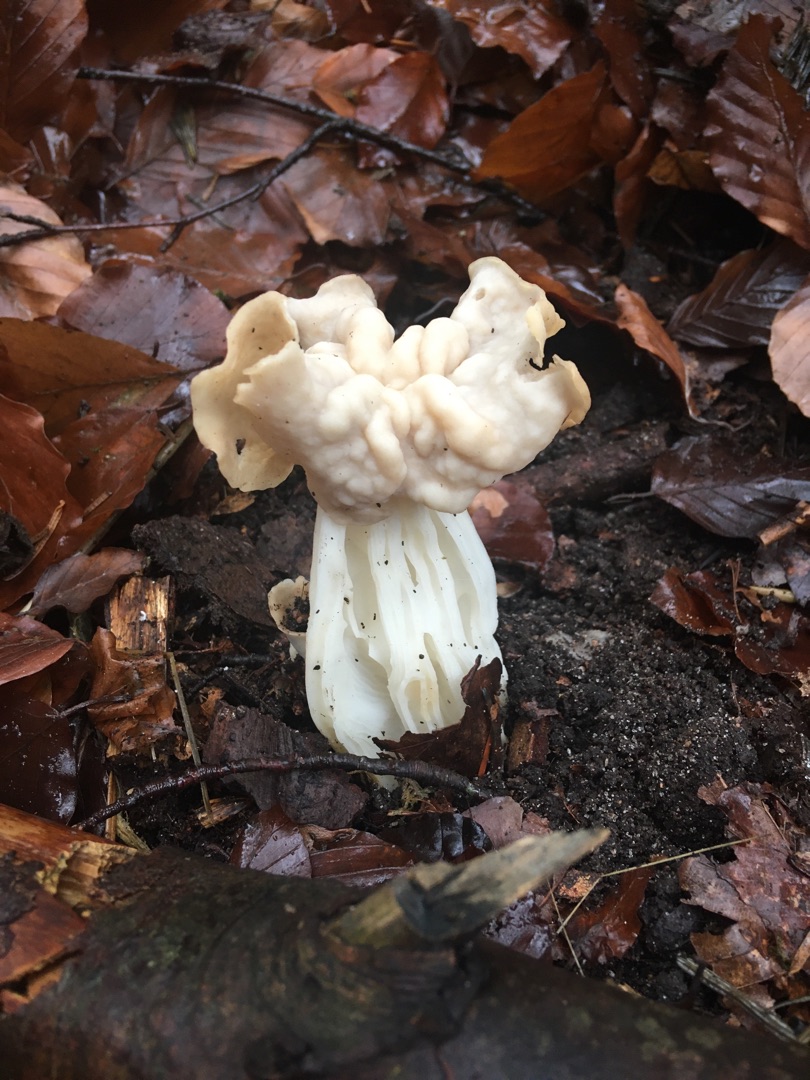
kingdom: Fungi
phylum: Ascomycota
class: Pezizomycetes
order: Pezizales
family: Helvellaceae
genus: Helvella
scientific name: Helvella crispa
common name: Kruset foldhat
